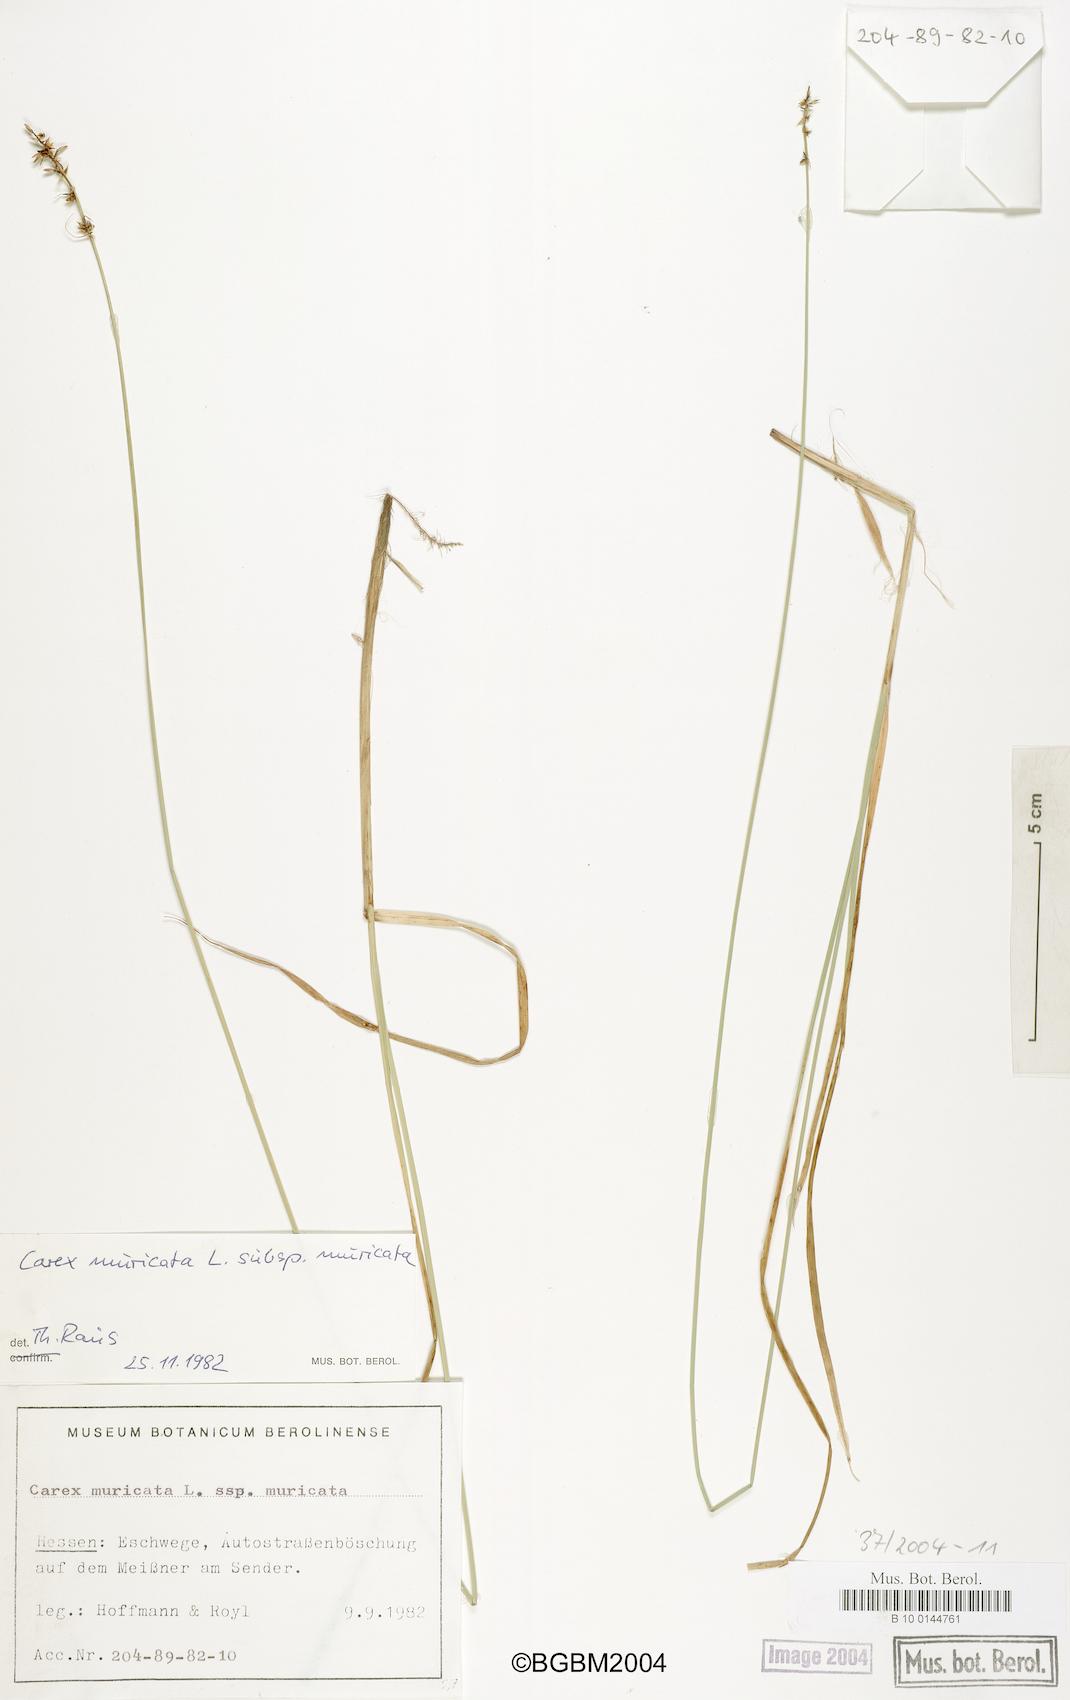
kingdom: Plantae
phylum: Tracheophyta
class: Liliopsida
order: Poales
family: Cyperaceae
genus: Carex
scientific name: Carex muricata
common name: Rough sedge
